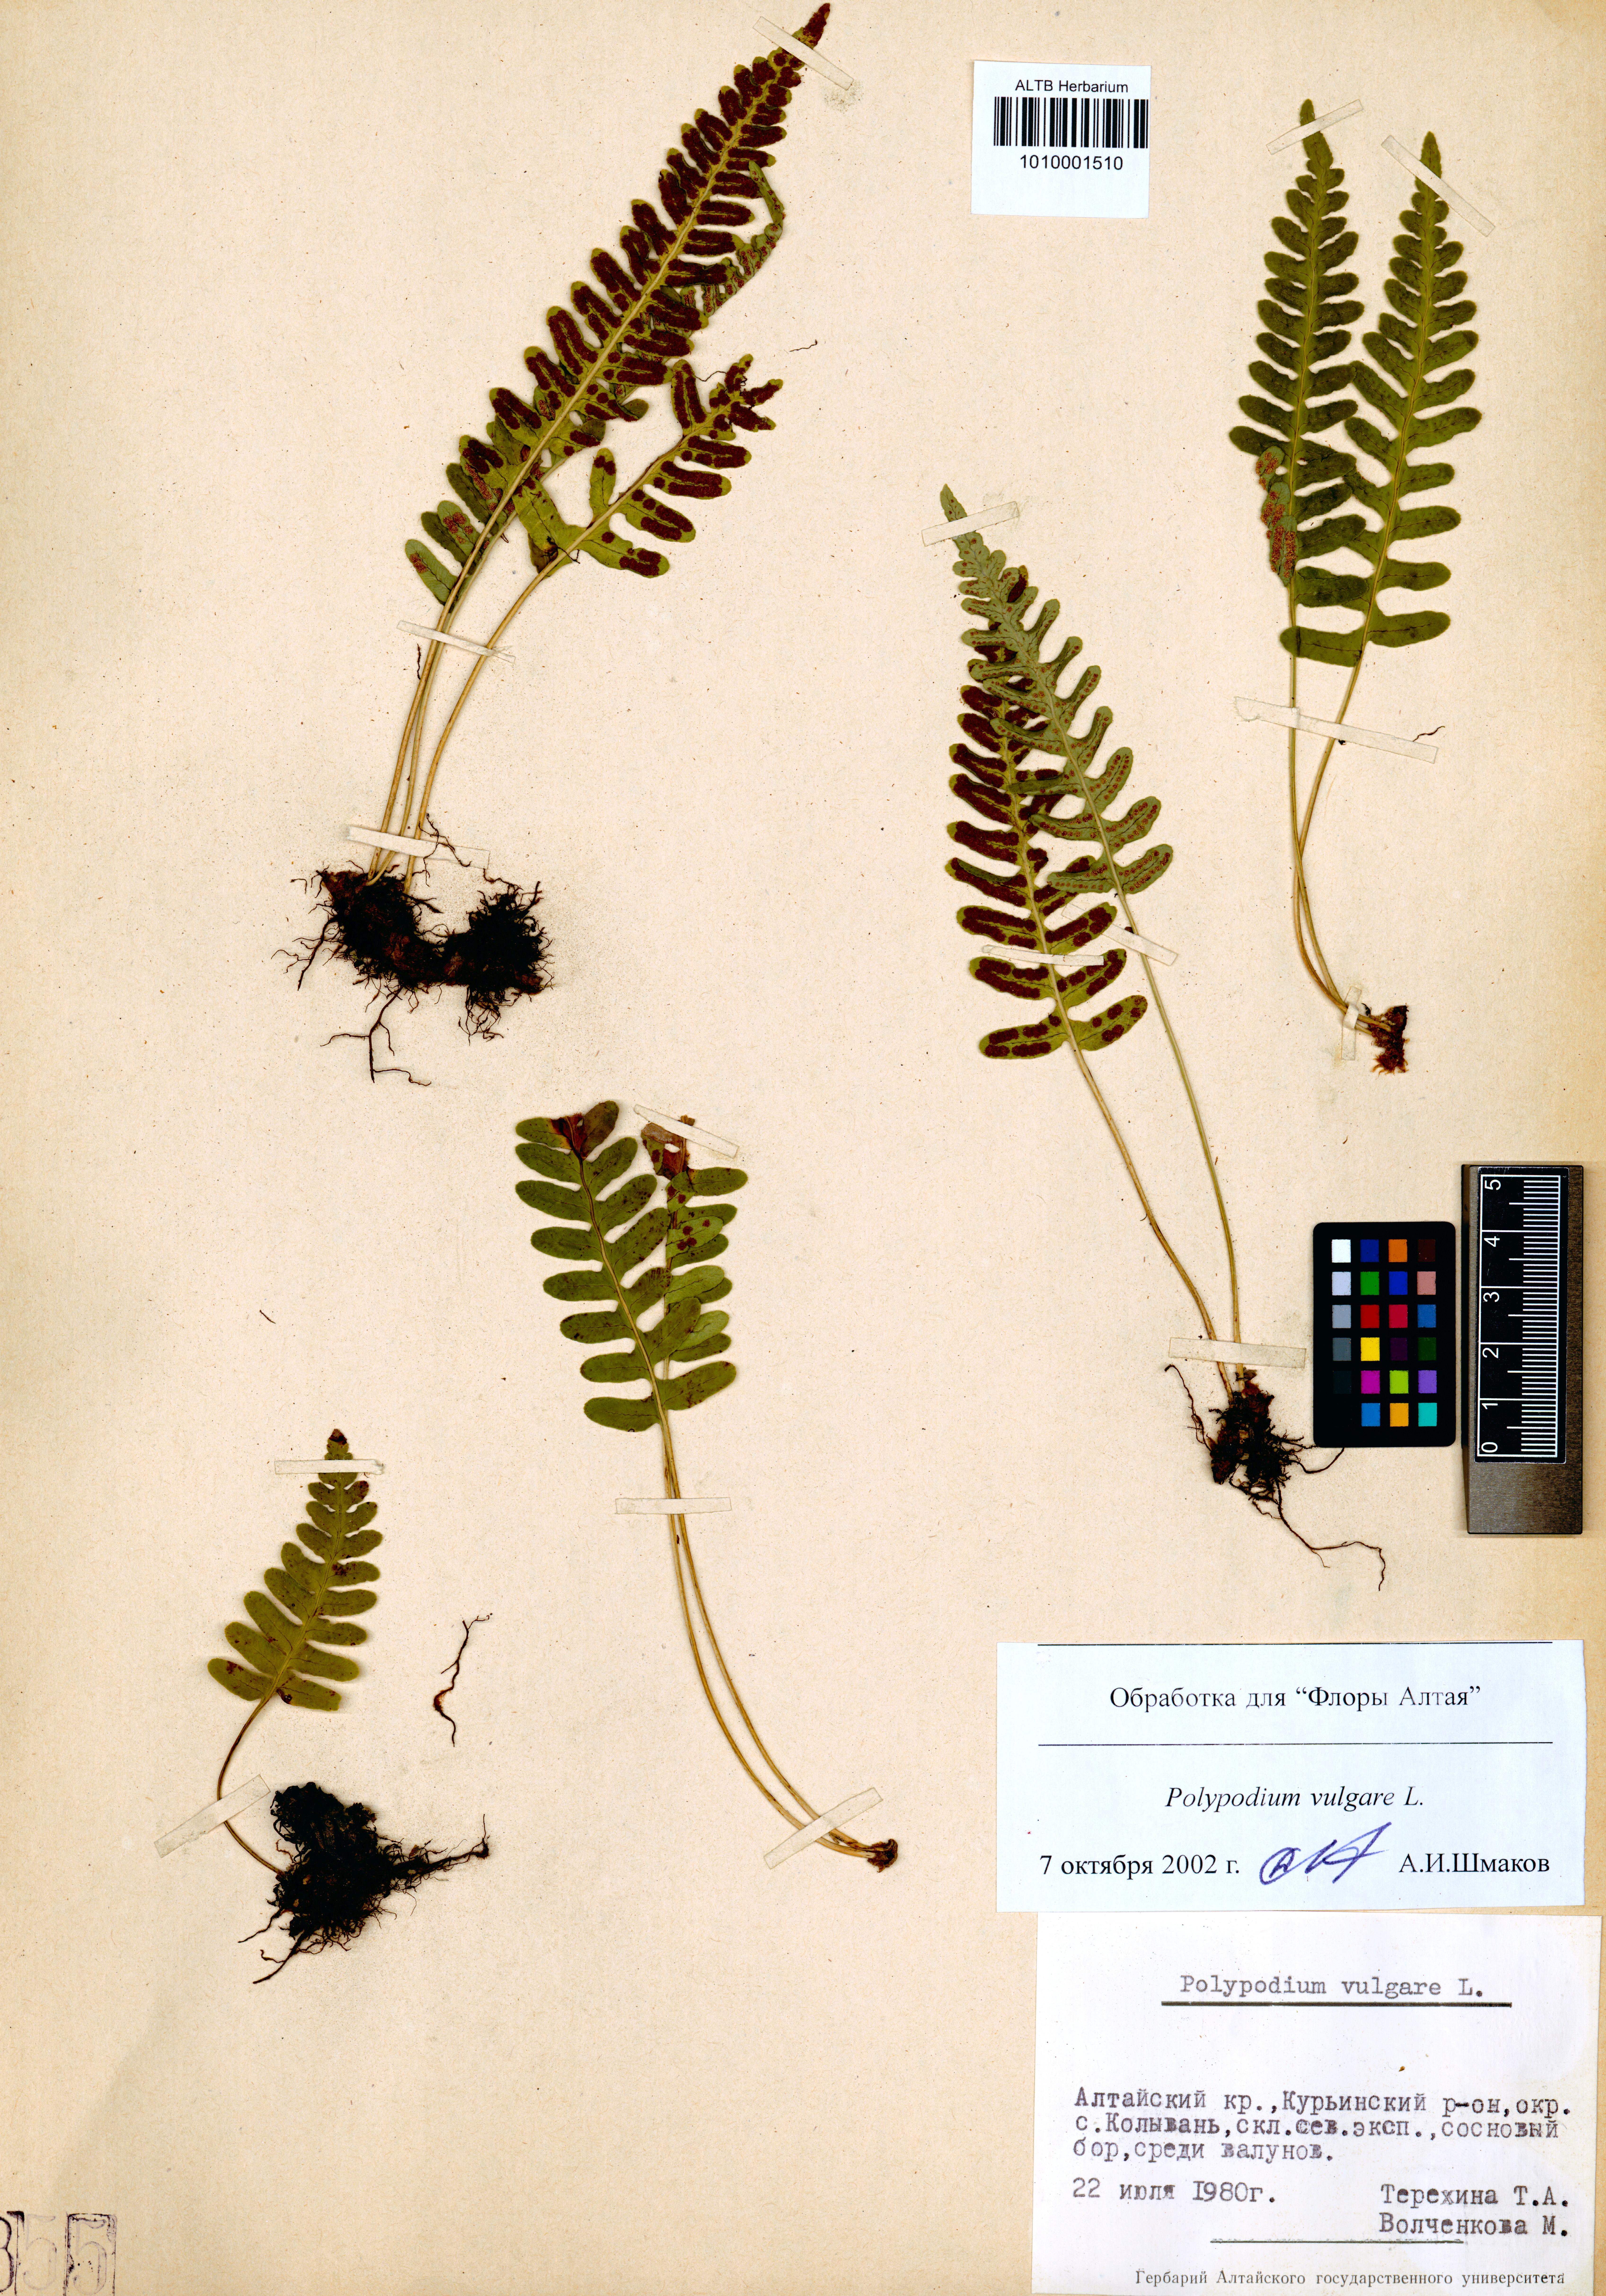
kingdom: Plantae
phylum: Tracheophyta
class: Polypodiopsida
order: Polypodiales
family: Polypodiaceae
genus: Polypodium
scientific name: Polypodium vulgare
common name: Common polypody
